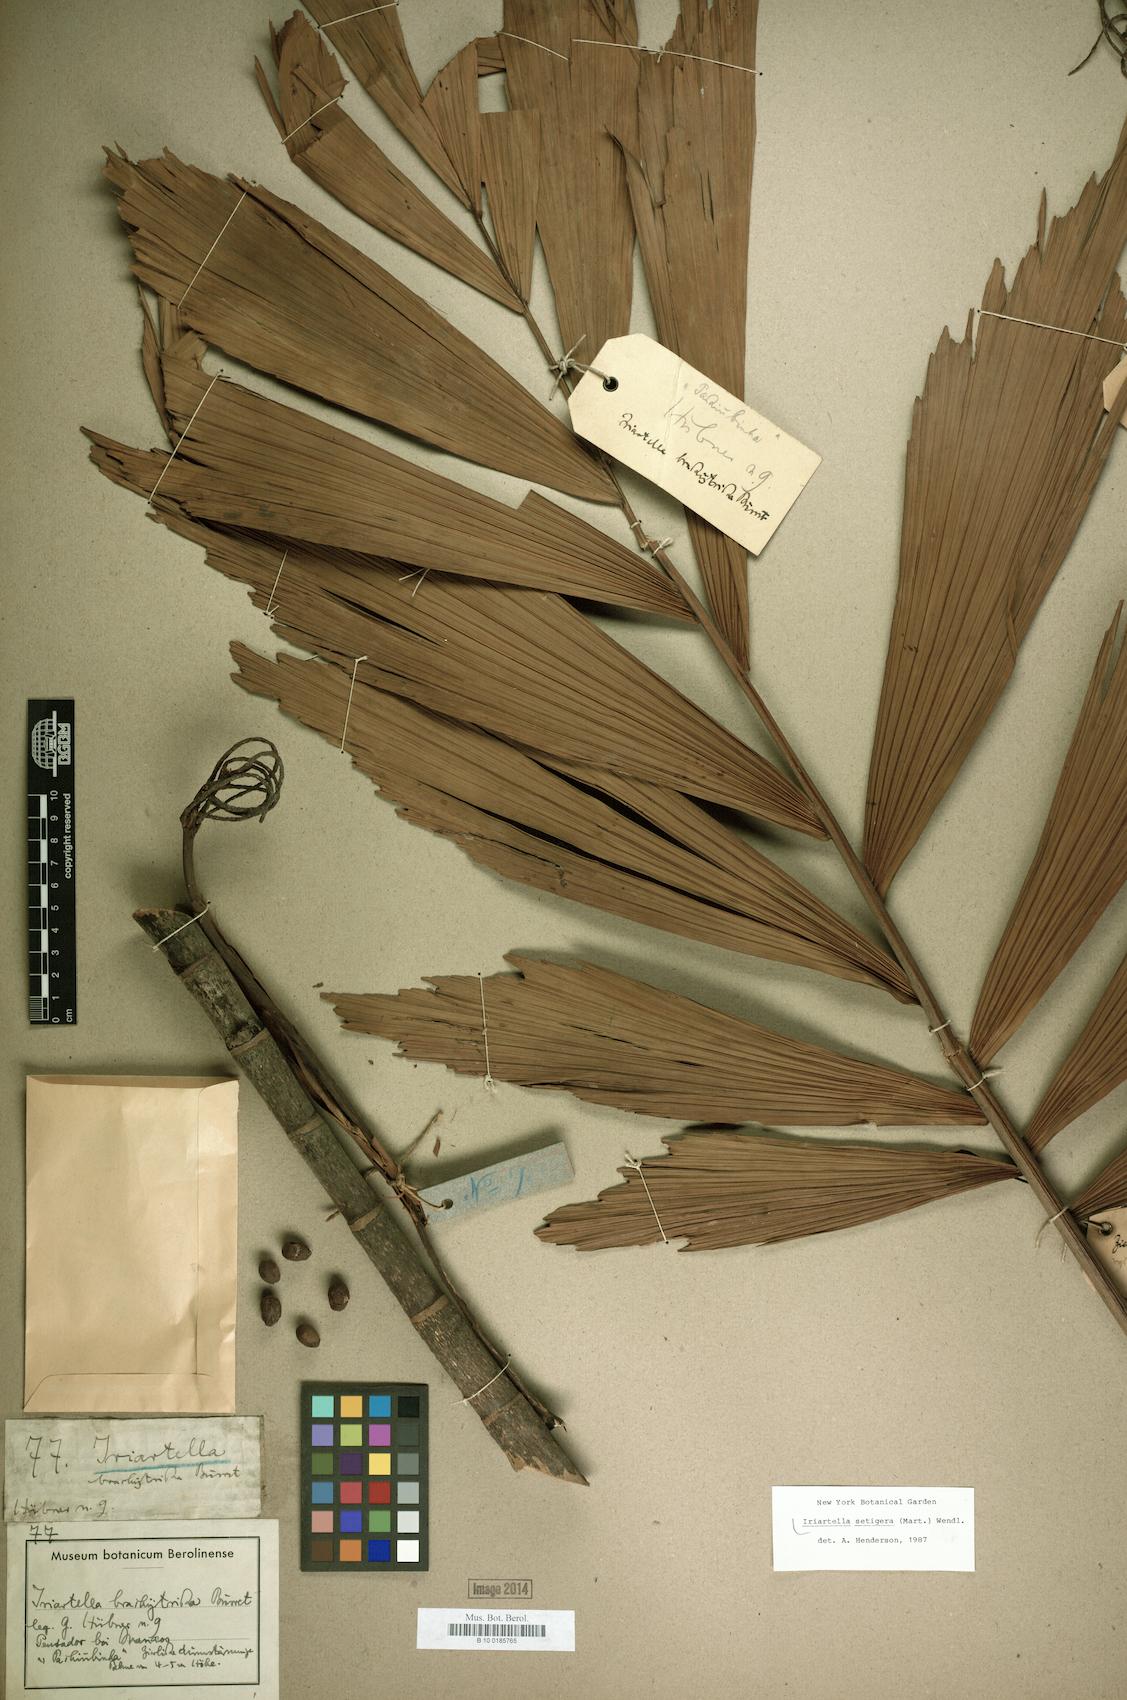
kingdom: Plantae
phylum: Tracheophyta
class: Liliopsida
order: Arecales
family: Arecaceae
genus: Iriartella
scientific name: Iriartella setigera
